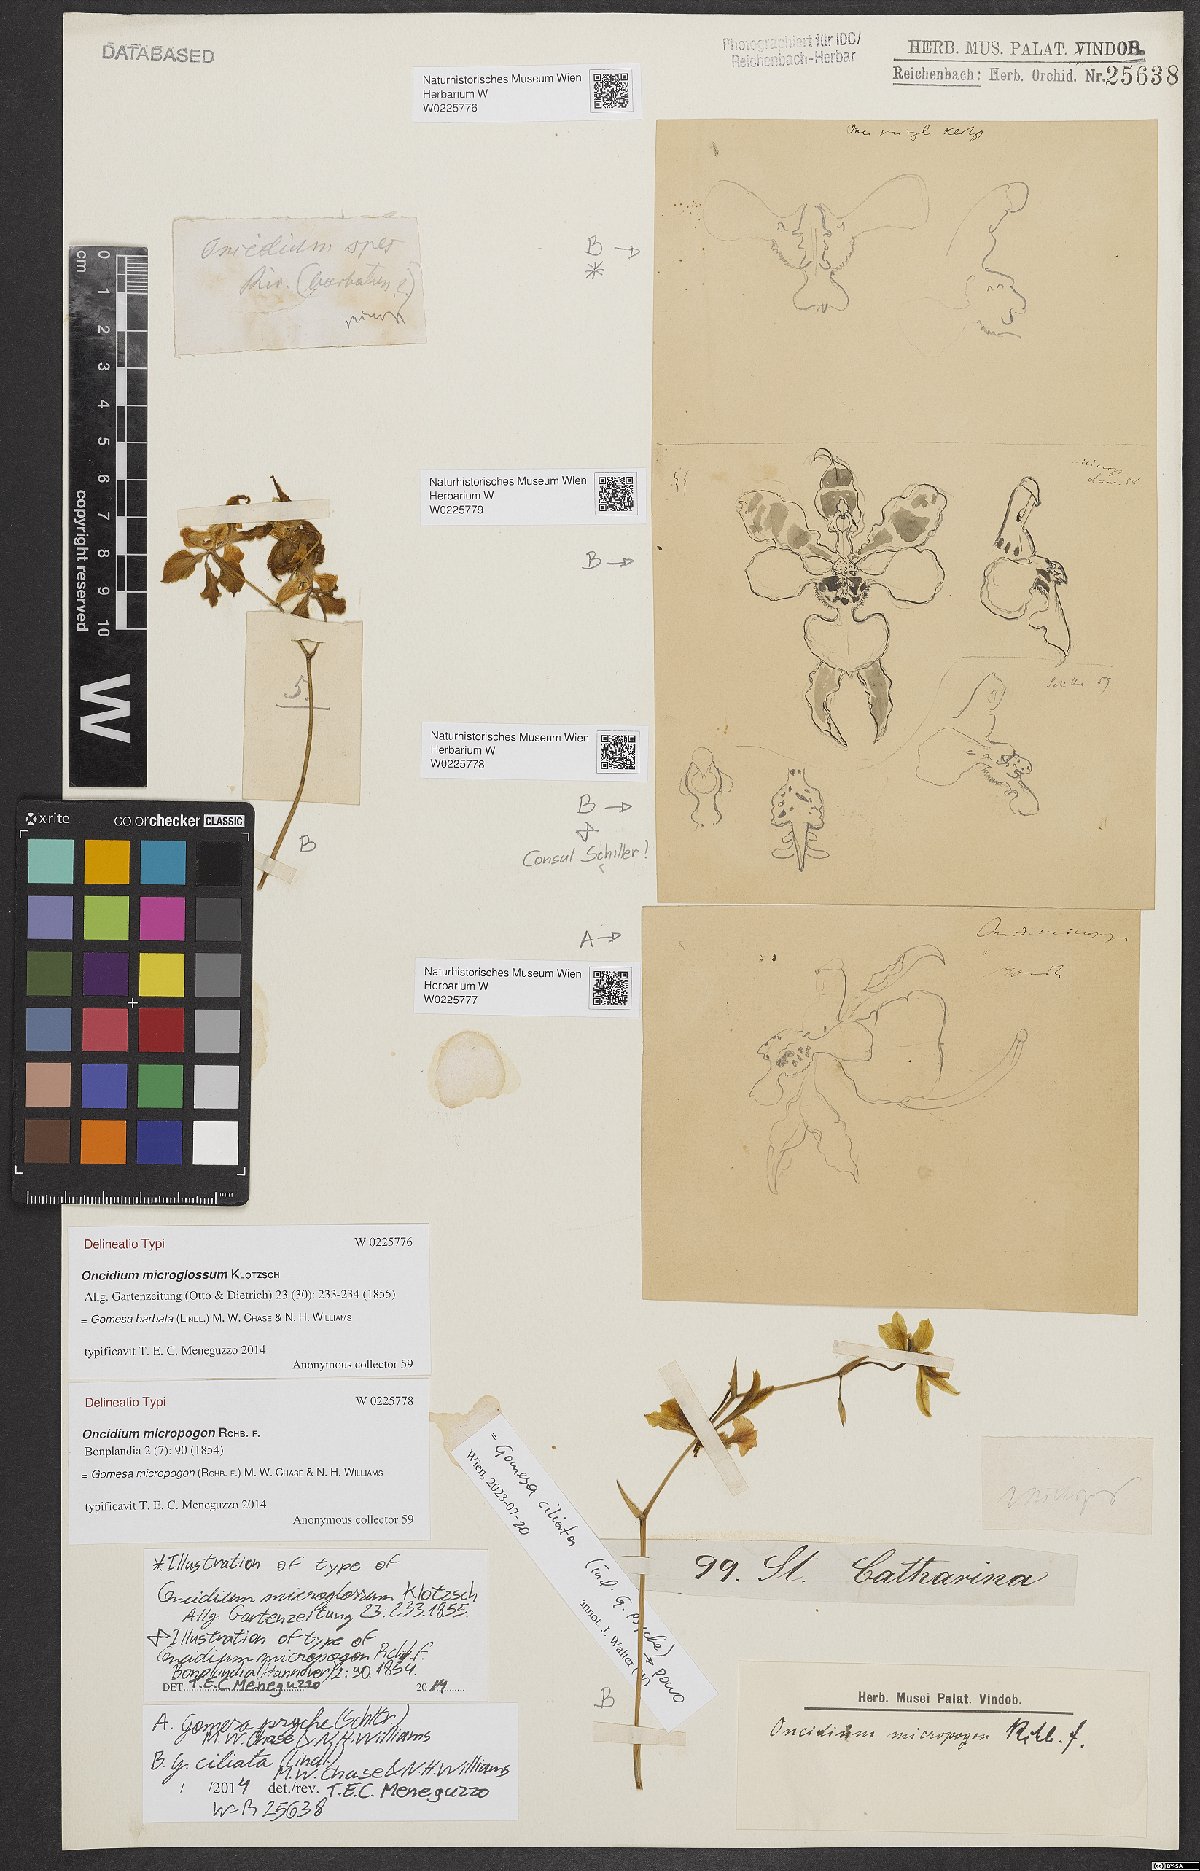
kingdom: Plantae
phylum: Tracheophyta
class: Liliopsida
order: Asparagales
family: Orchidaceae
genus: Gomesa
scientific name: Gomesa micropogon
